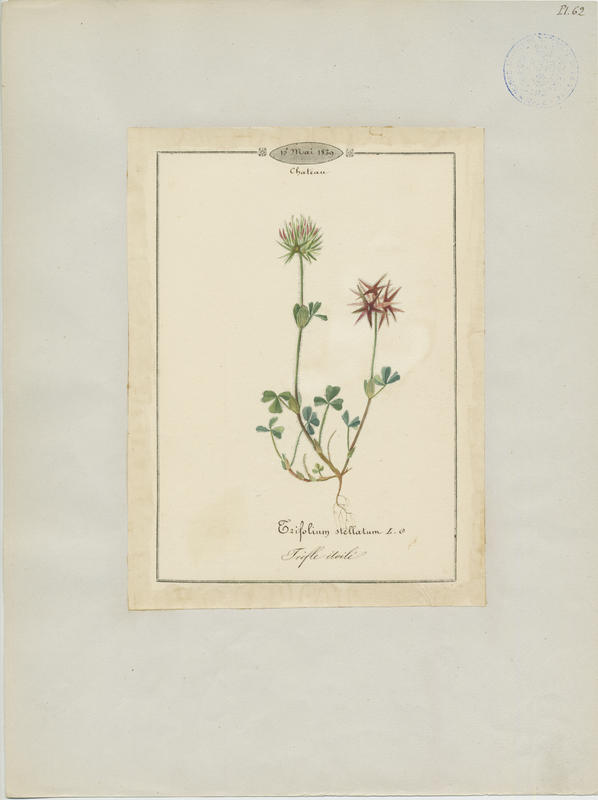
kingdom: Plantae
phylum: Tracheophyta
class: Magnoliopsida
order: Fabales
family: Fabaceae
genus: Trifolium
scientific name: Trifolium stellatum
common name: Starry clover
